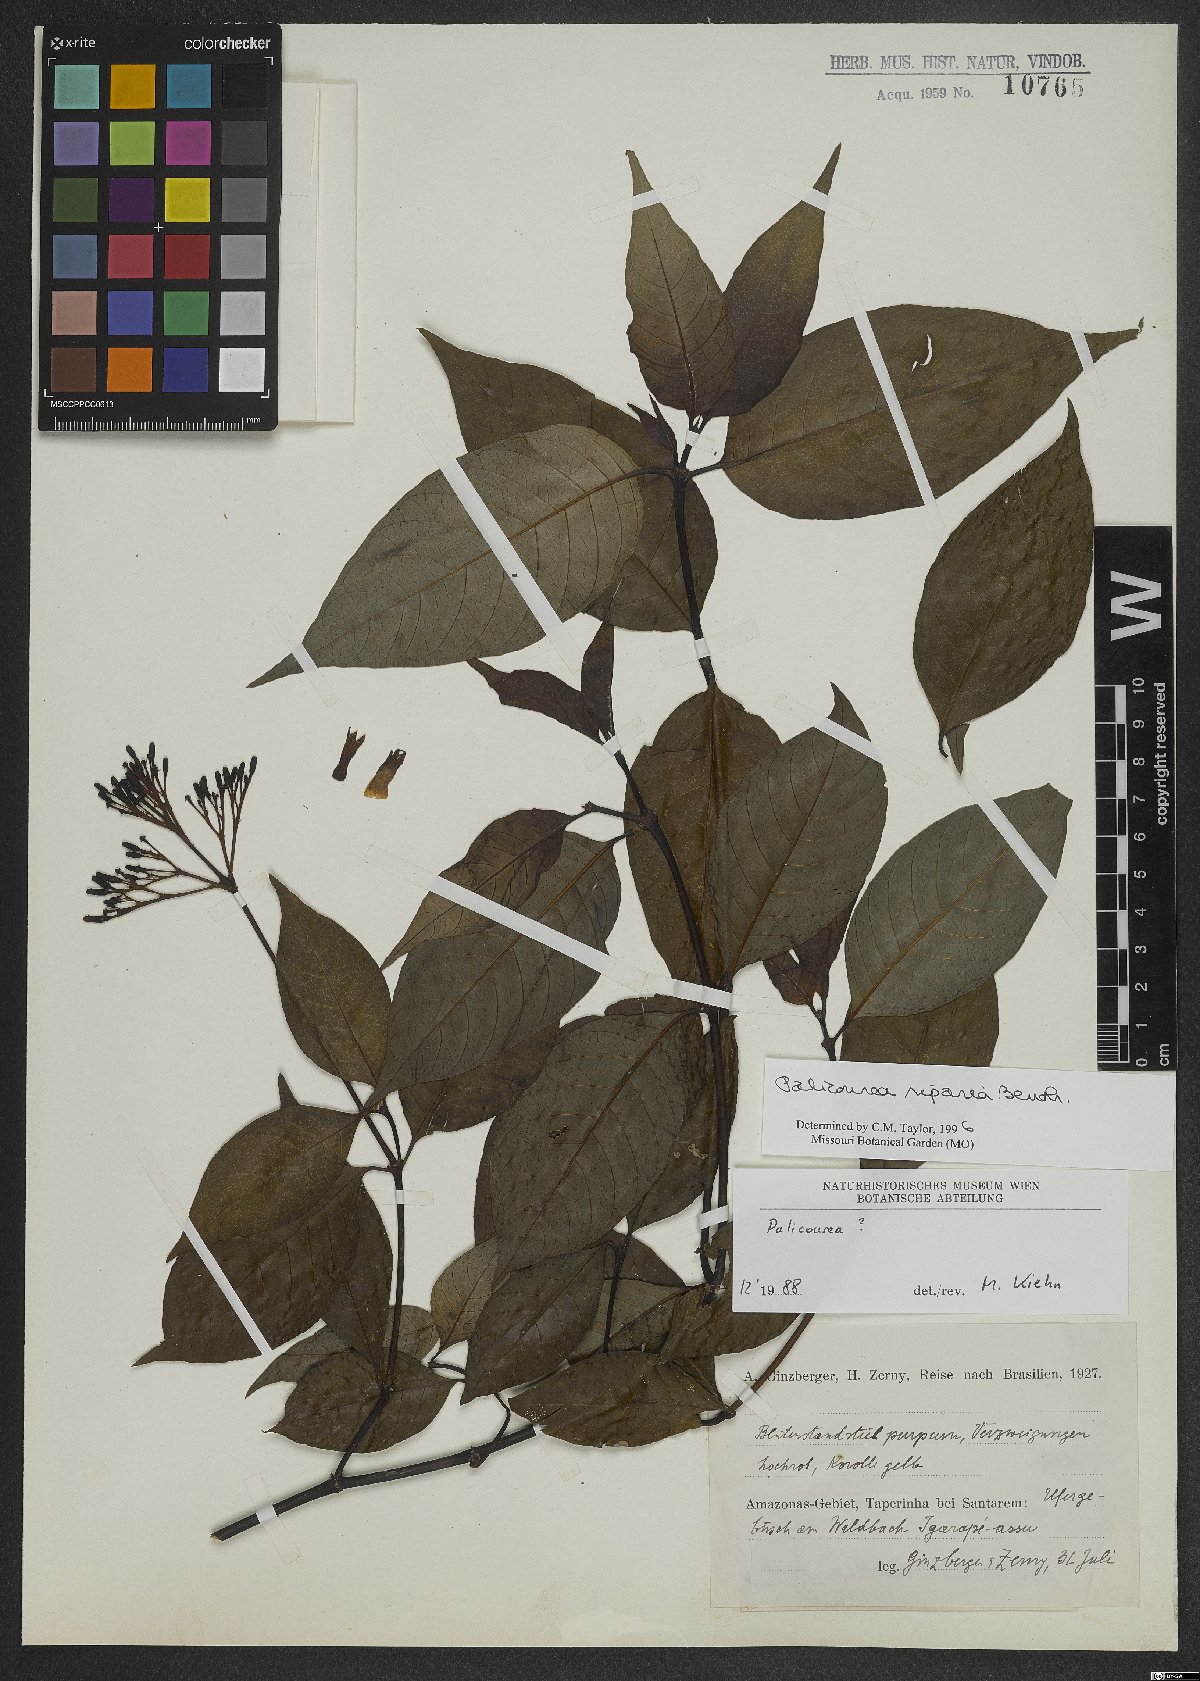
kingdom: Plantae
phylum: Tracheophyta
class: Magnoliopsida
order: Gentianales
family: Rubiaceae
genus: Palicourea
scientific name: Palicourea croceoides
